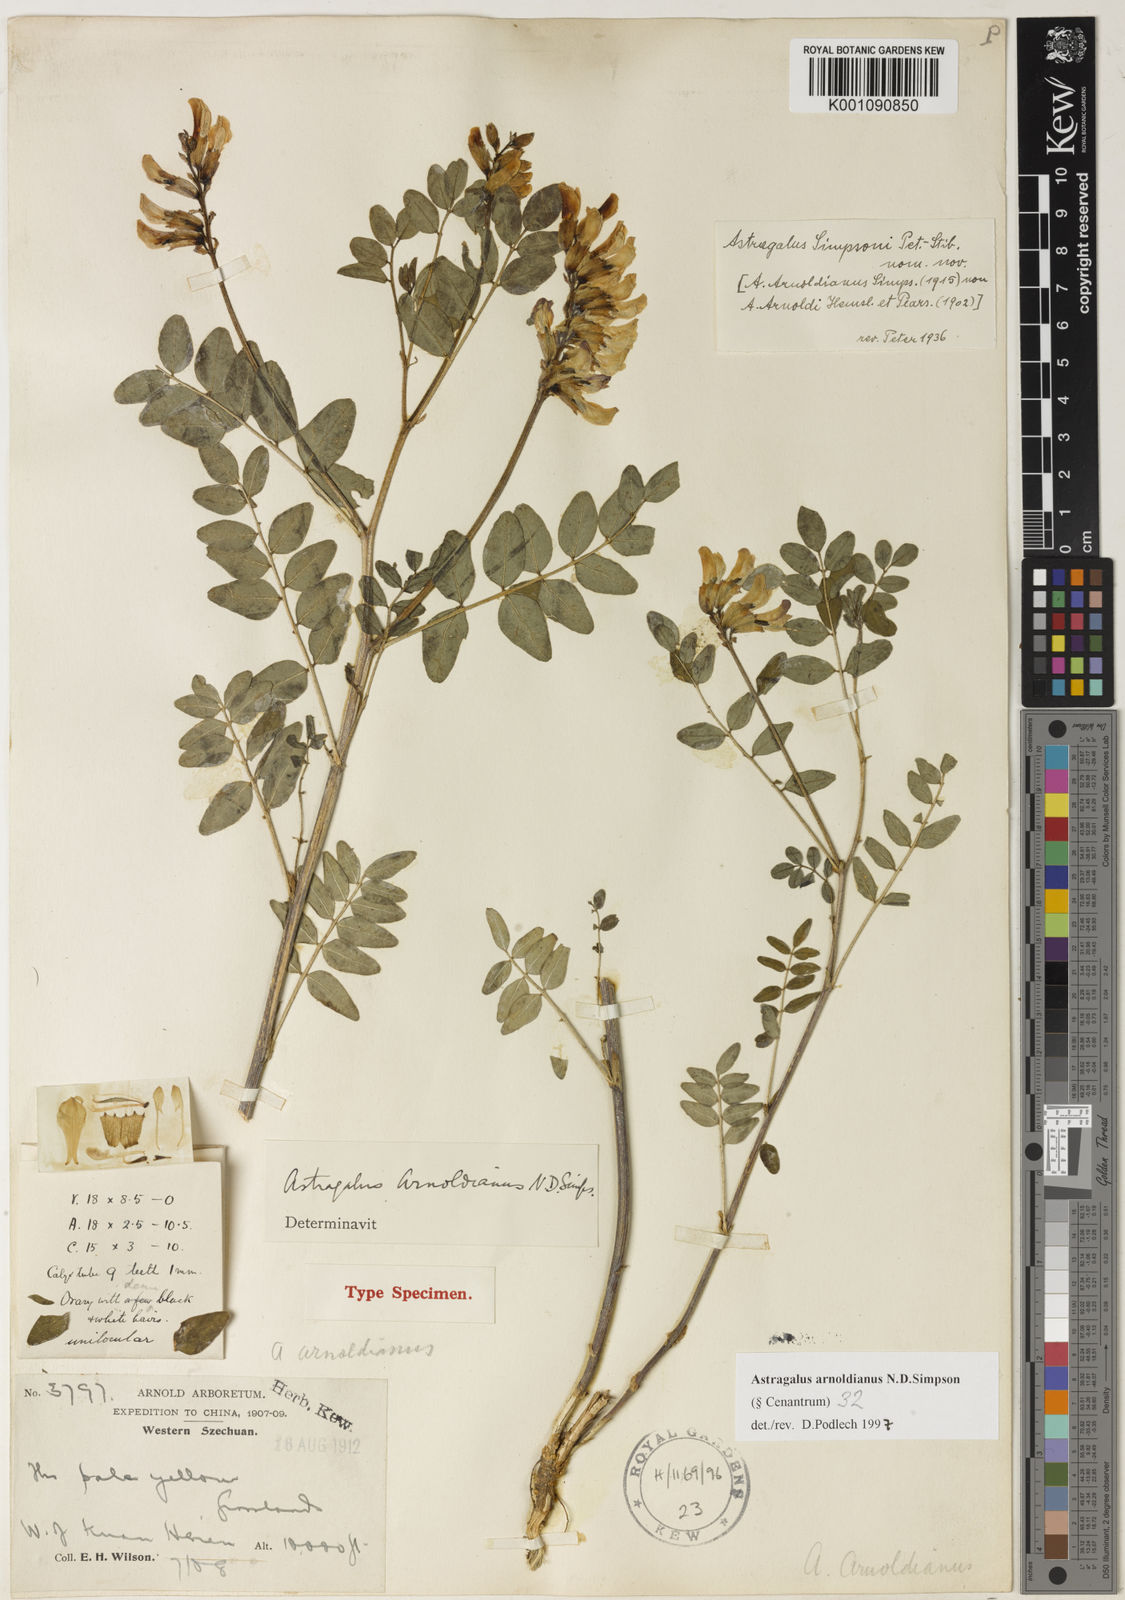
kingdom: Plantae
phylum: Tracheophyta
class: Magnoliopsida
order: Fabales
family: Fabaceae
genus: Astragalus
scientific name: Astragalus
